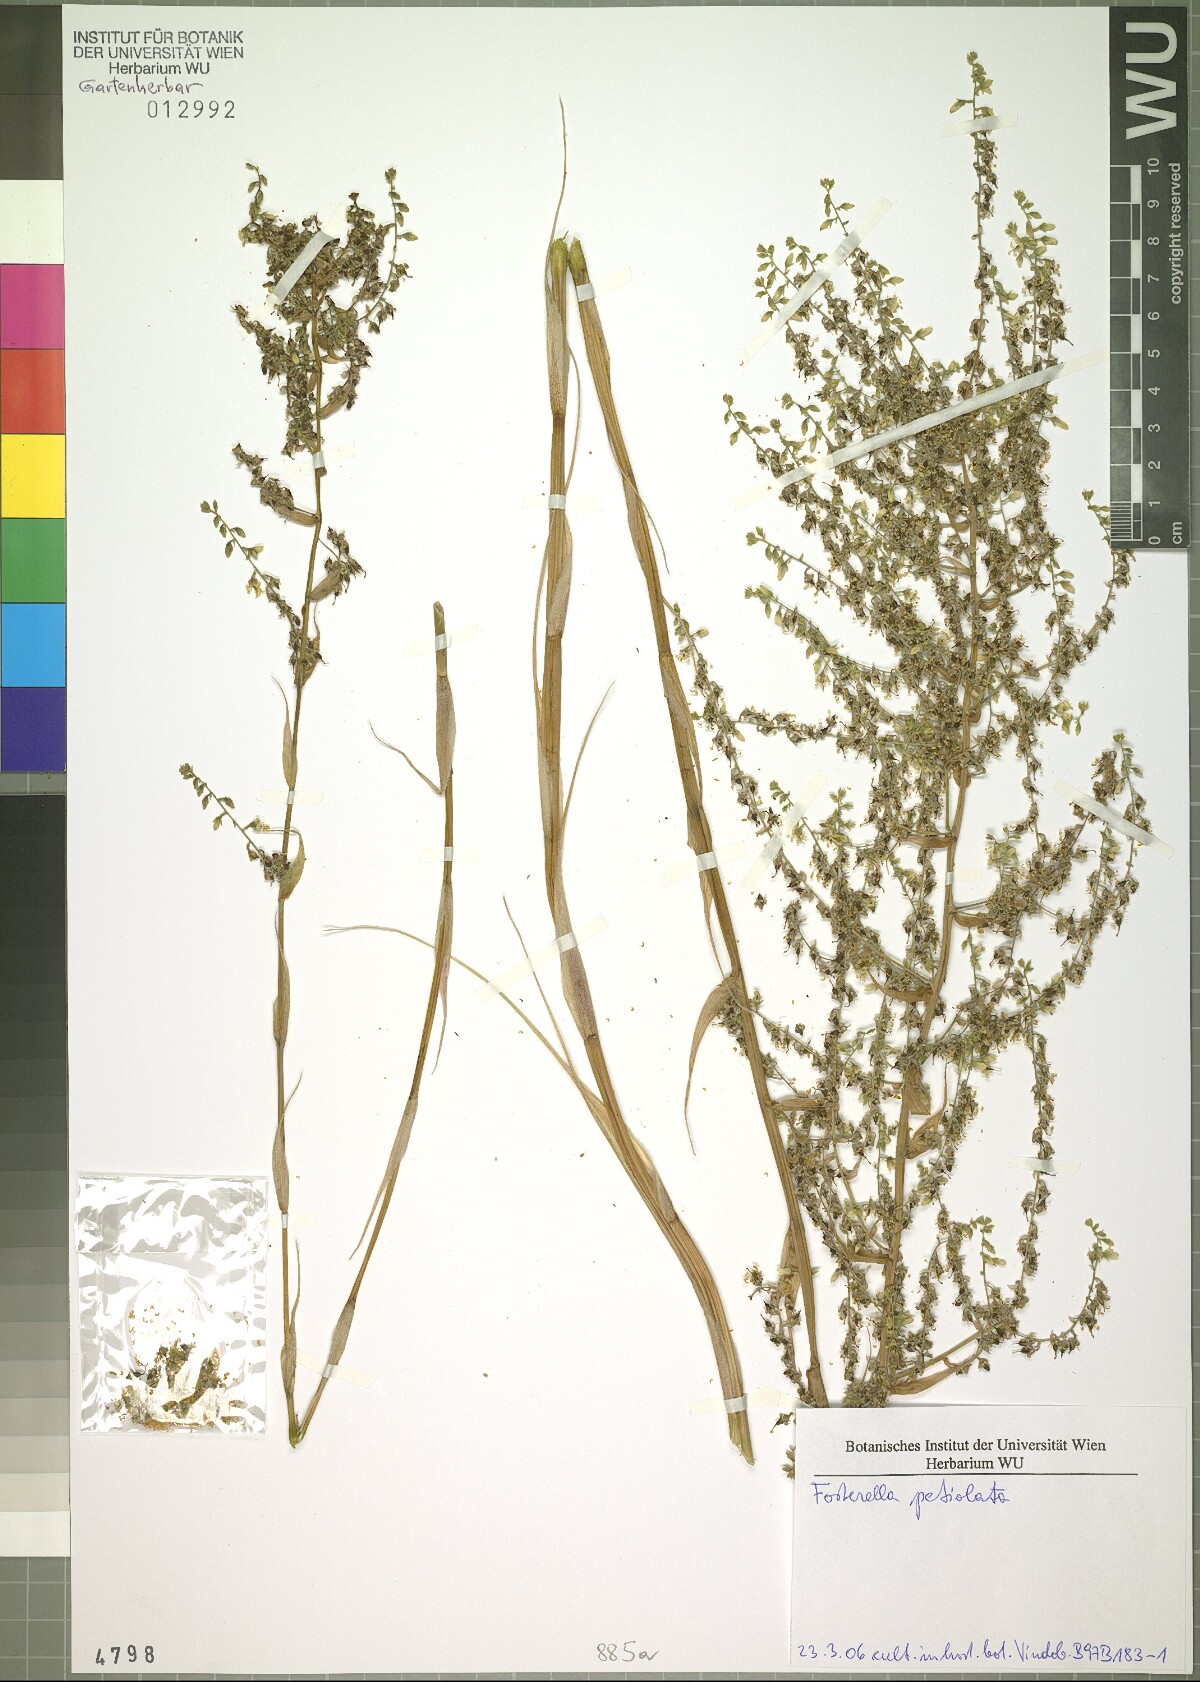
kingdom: Plantae
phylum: Tracheophyta
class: Liliopsida
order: Poales
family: Bromeliaceae
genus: Fosterella
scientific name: Fosterella petiolata
